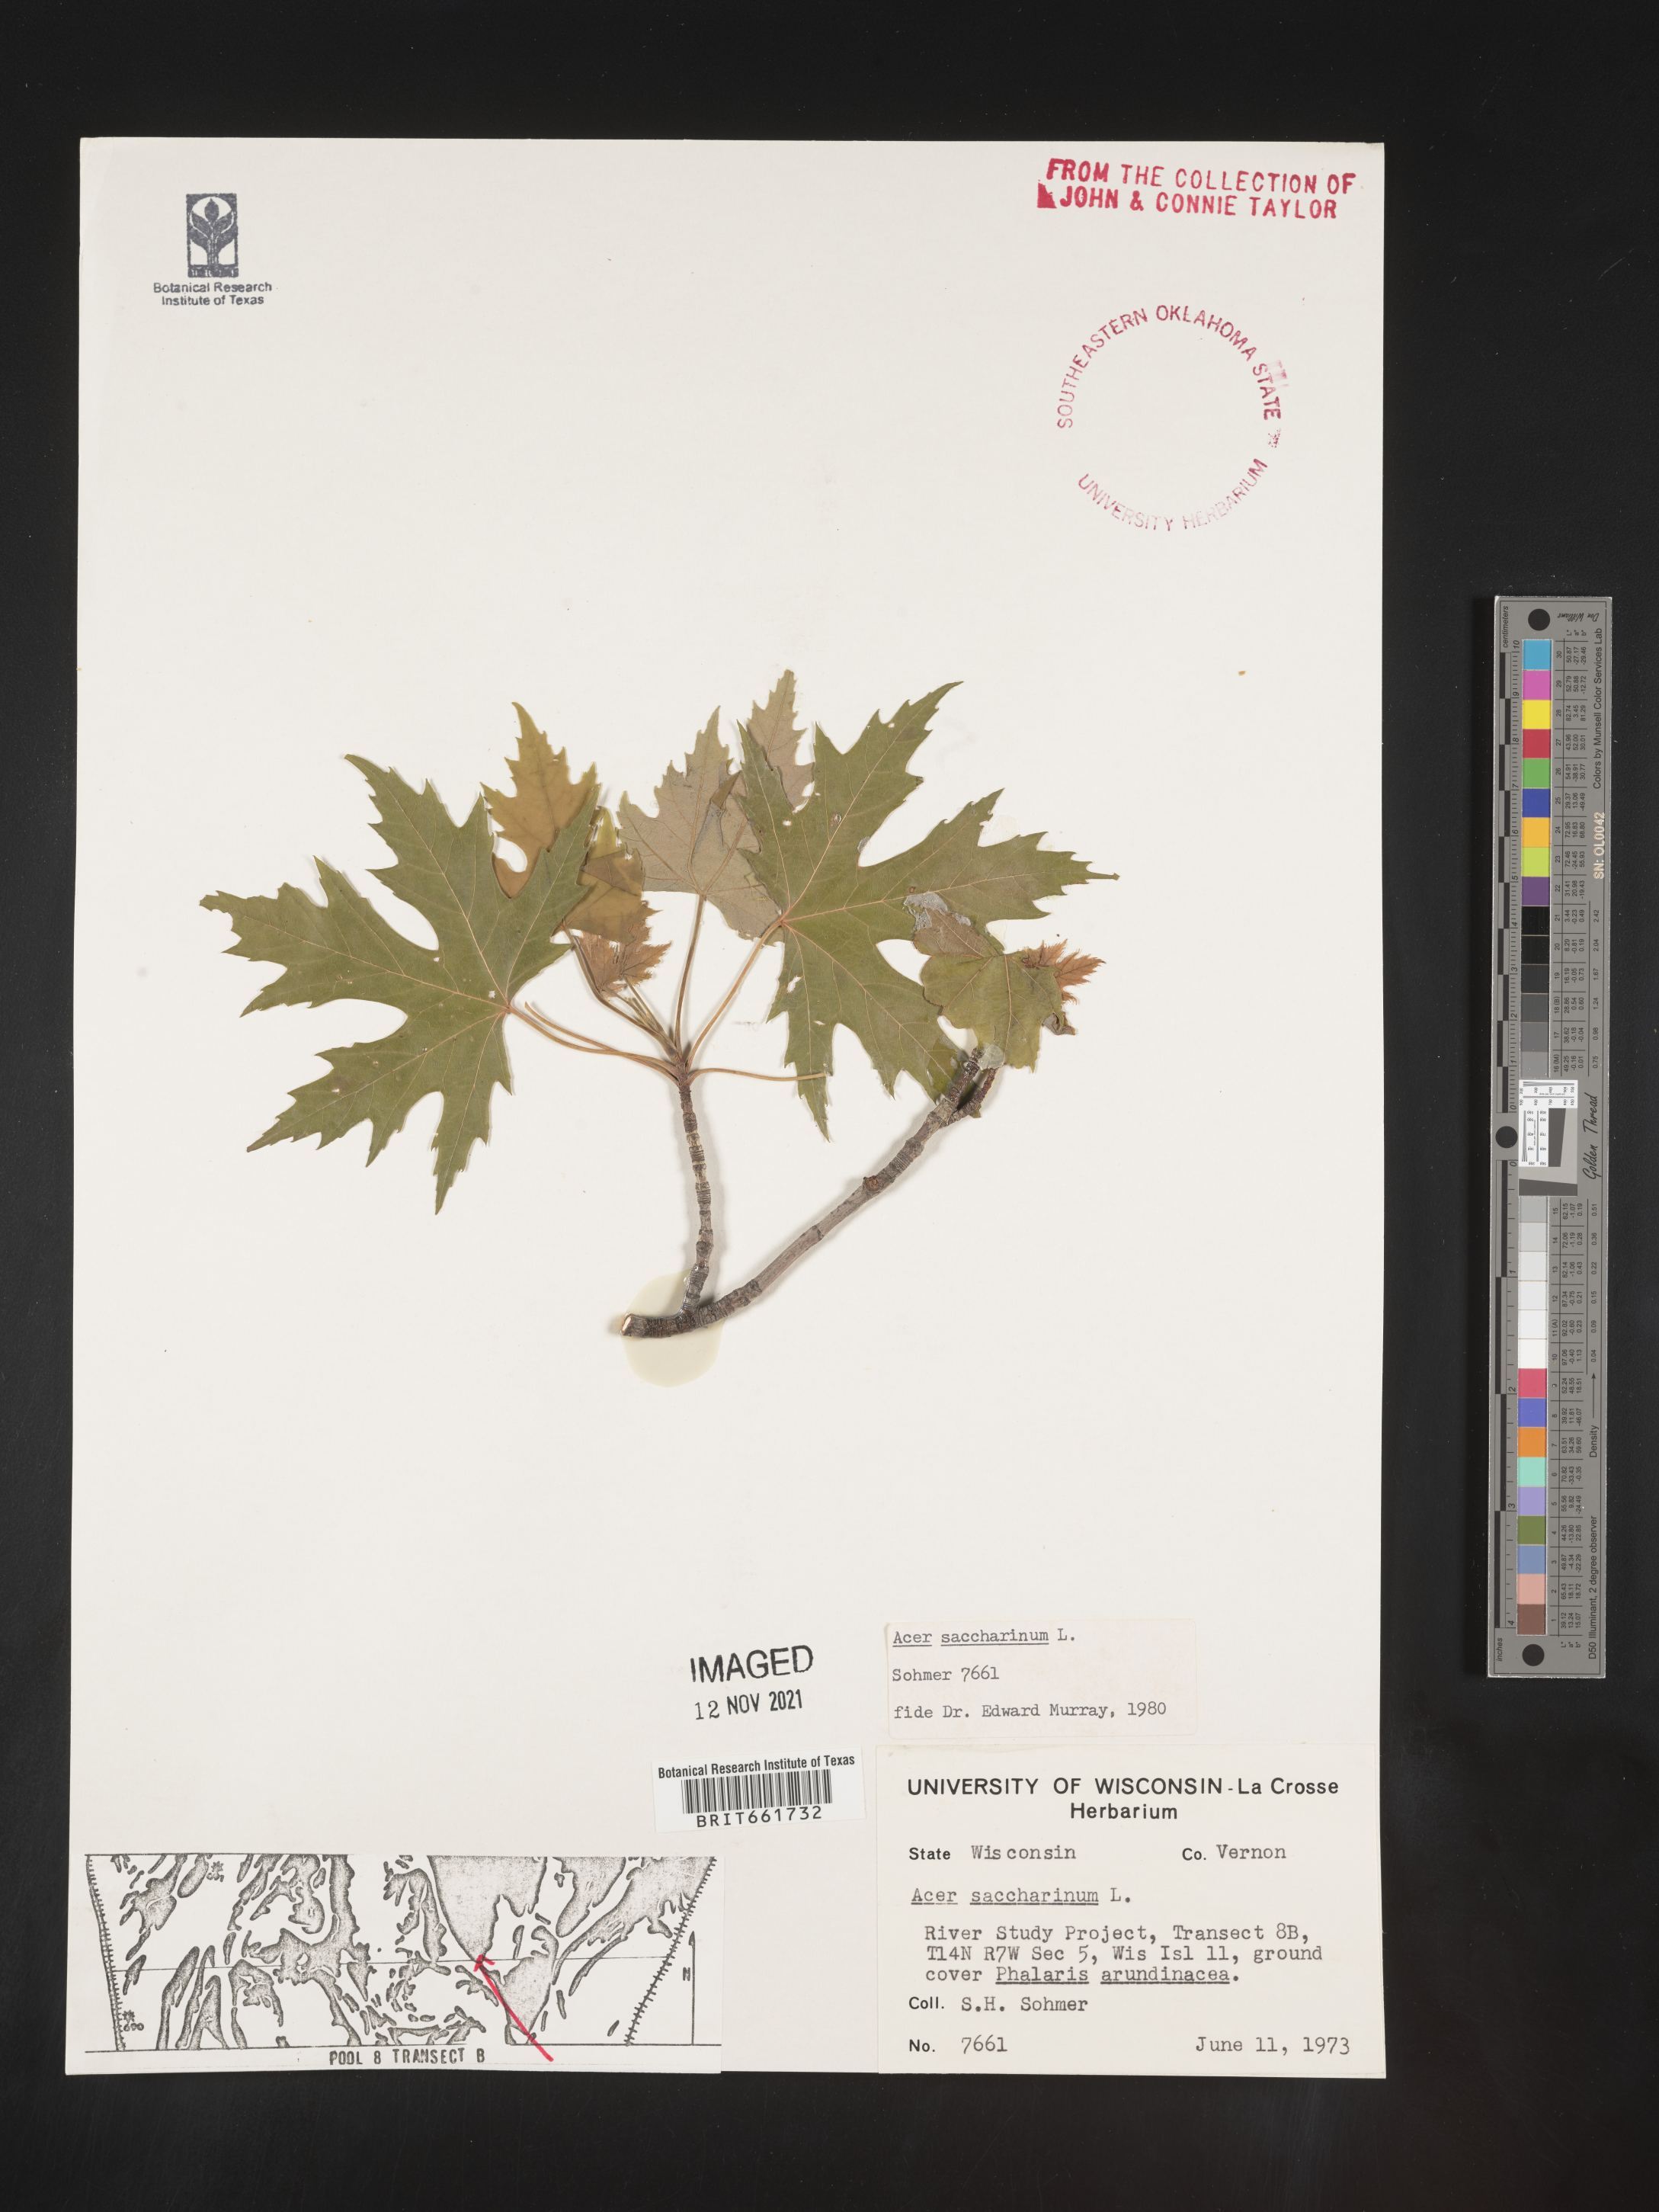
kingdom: Plantae
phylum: Tracheophyta
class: Magnoliopsida
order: Sapindales
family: Sapindaceae
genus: Acer
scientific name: Acer saccharinum
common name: Silver maple
